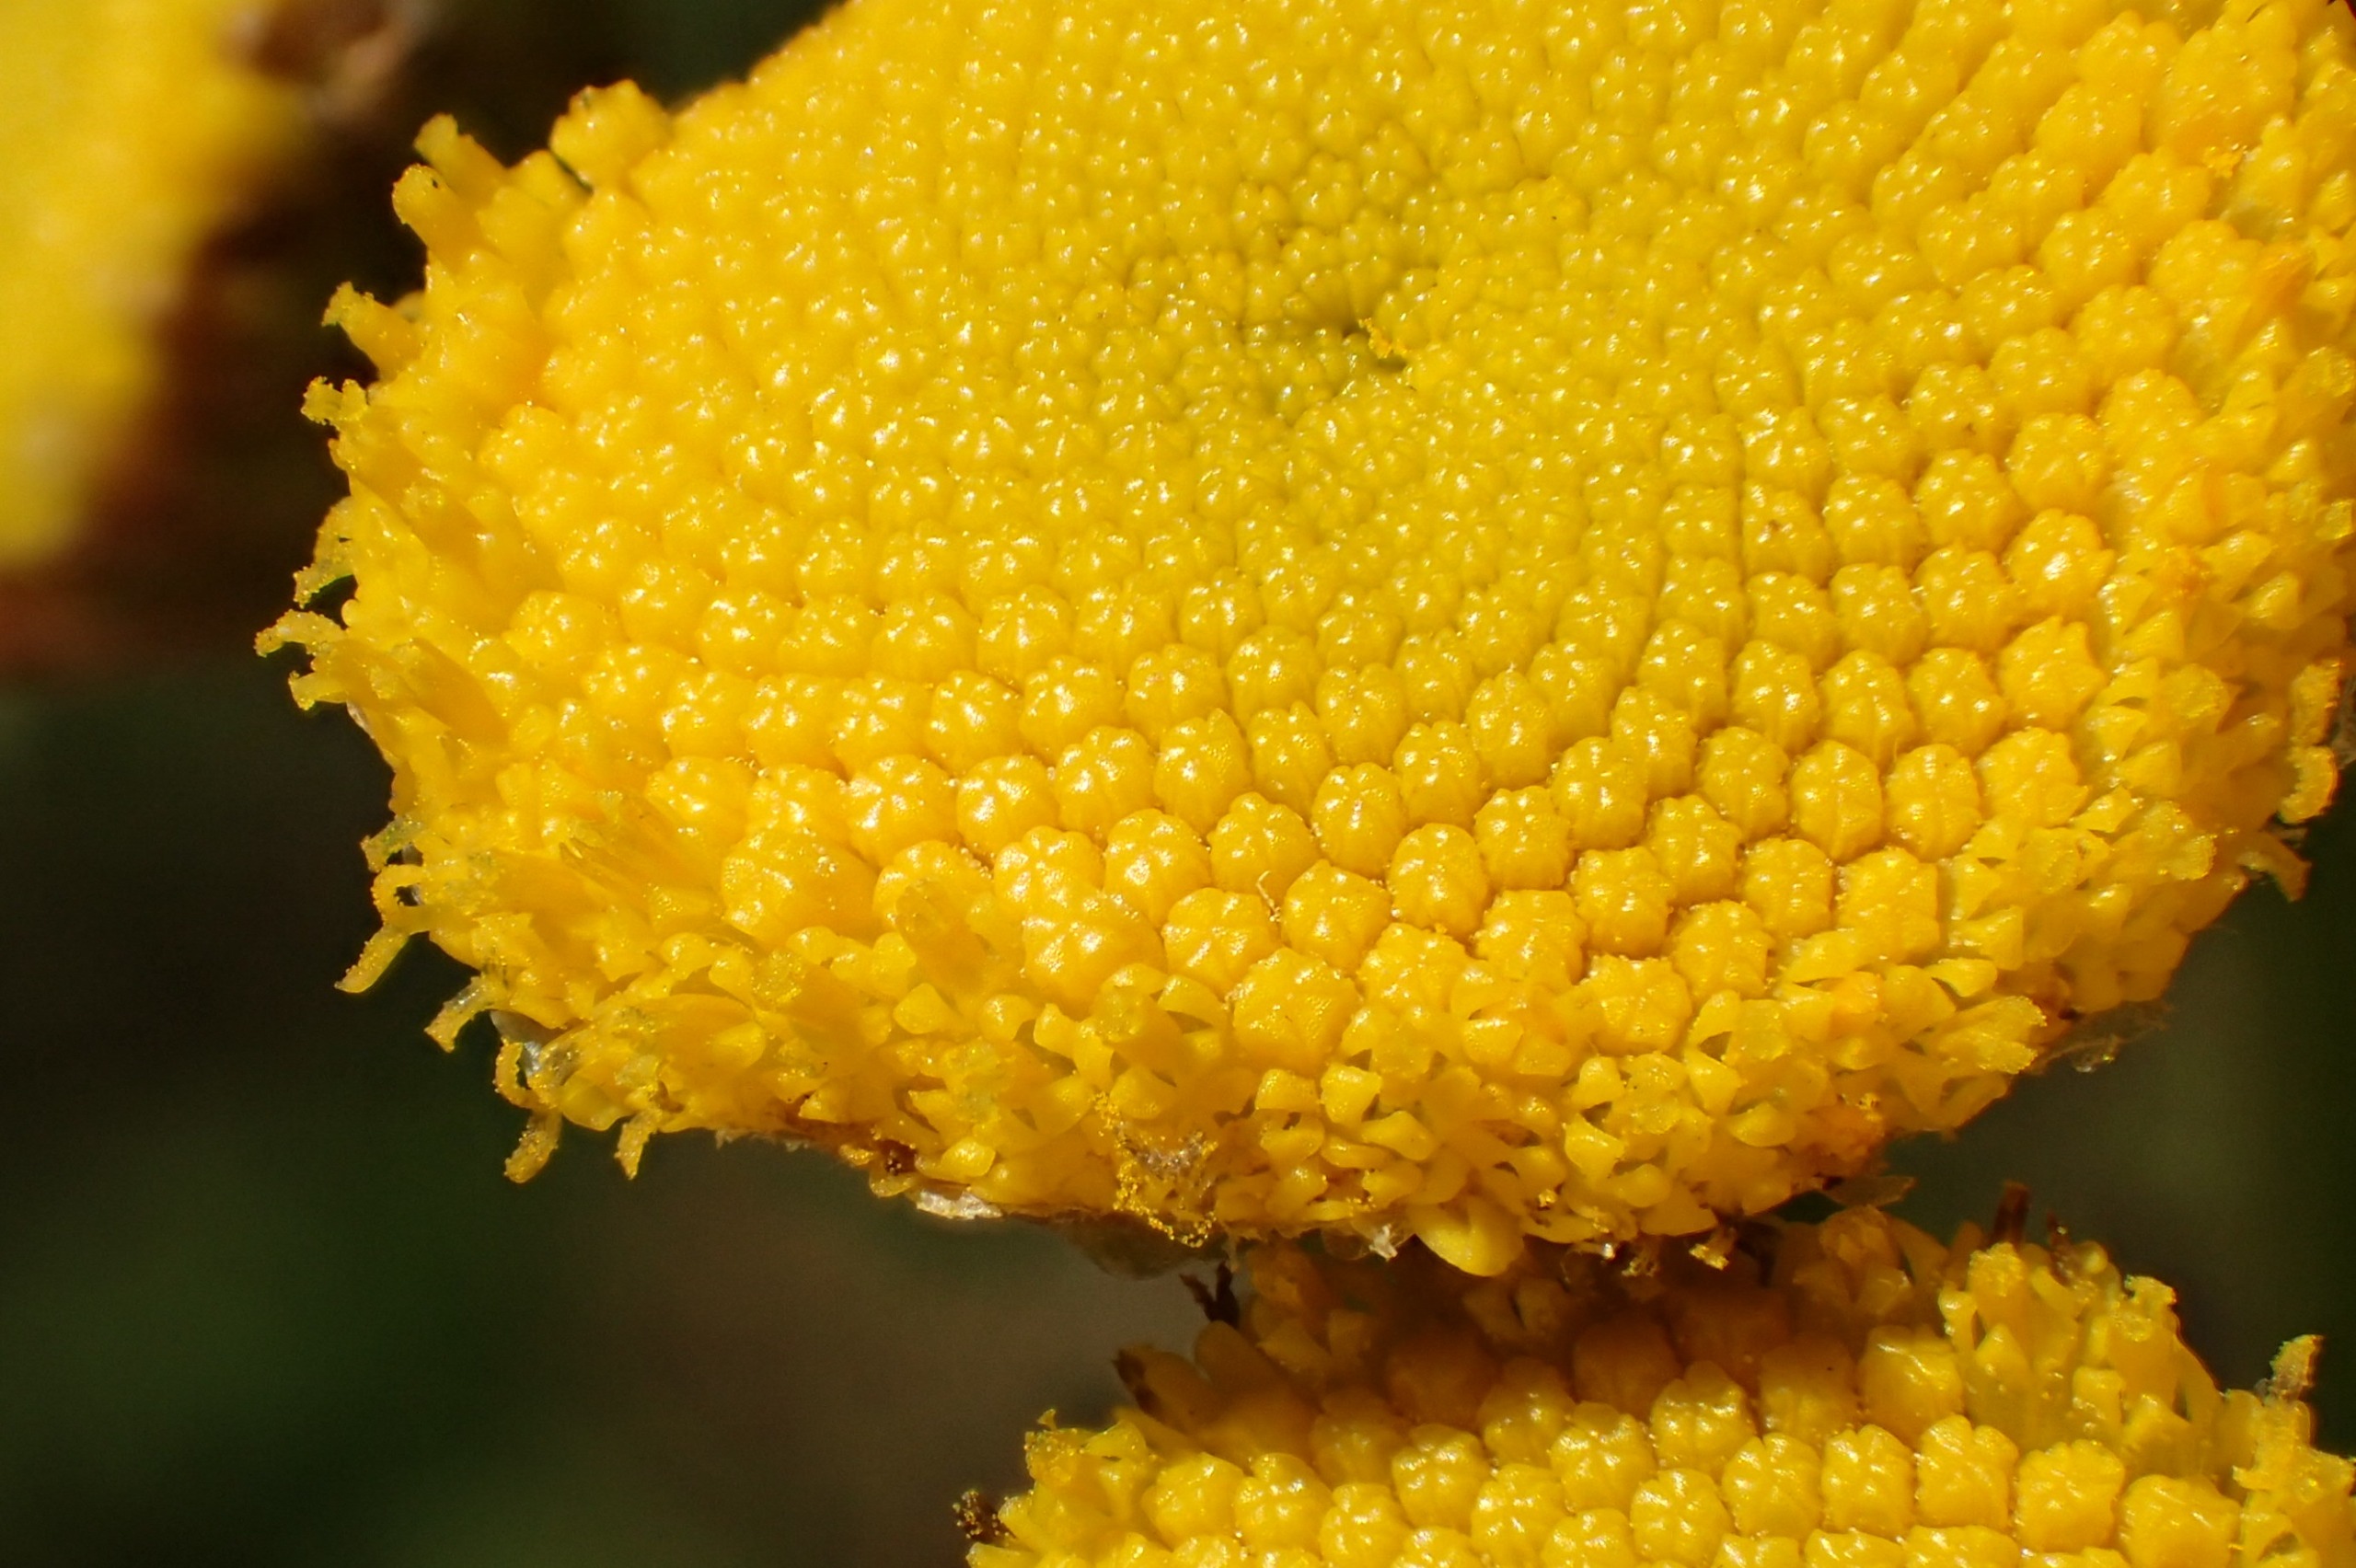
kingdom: Plantae
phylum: Tracheophyta
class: Magnoliopsida
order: Asterales
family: Asteraceae
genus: Tanacetum
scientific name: Tanacetum vulgare
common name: Rejnfan
